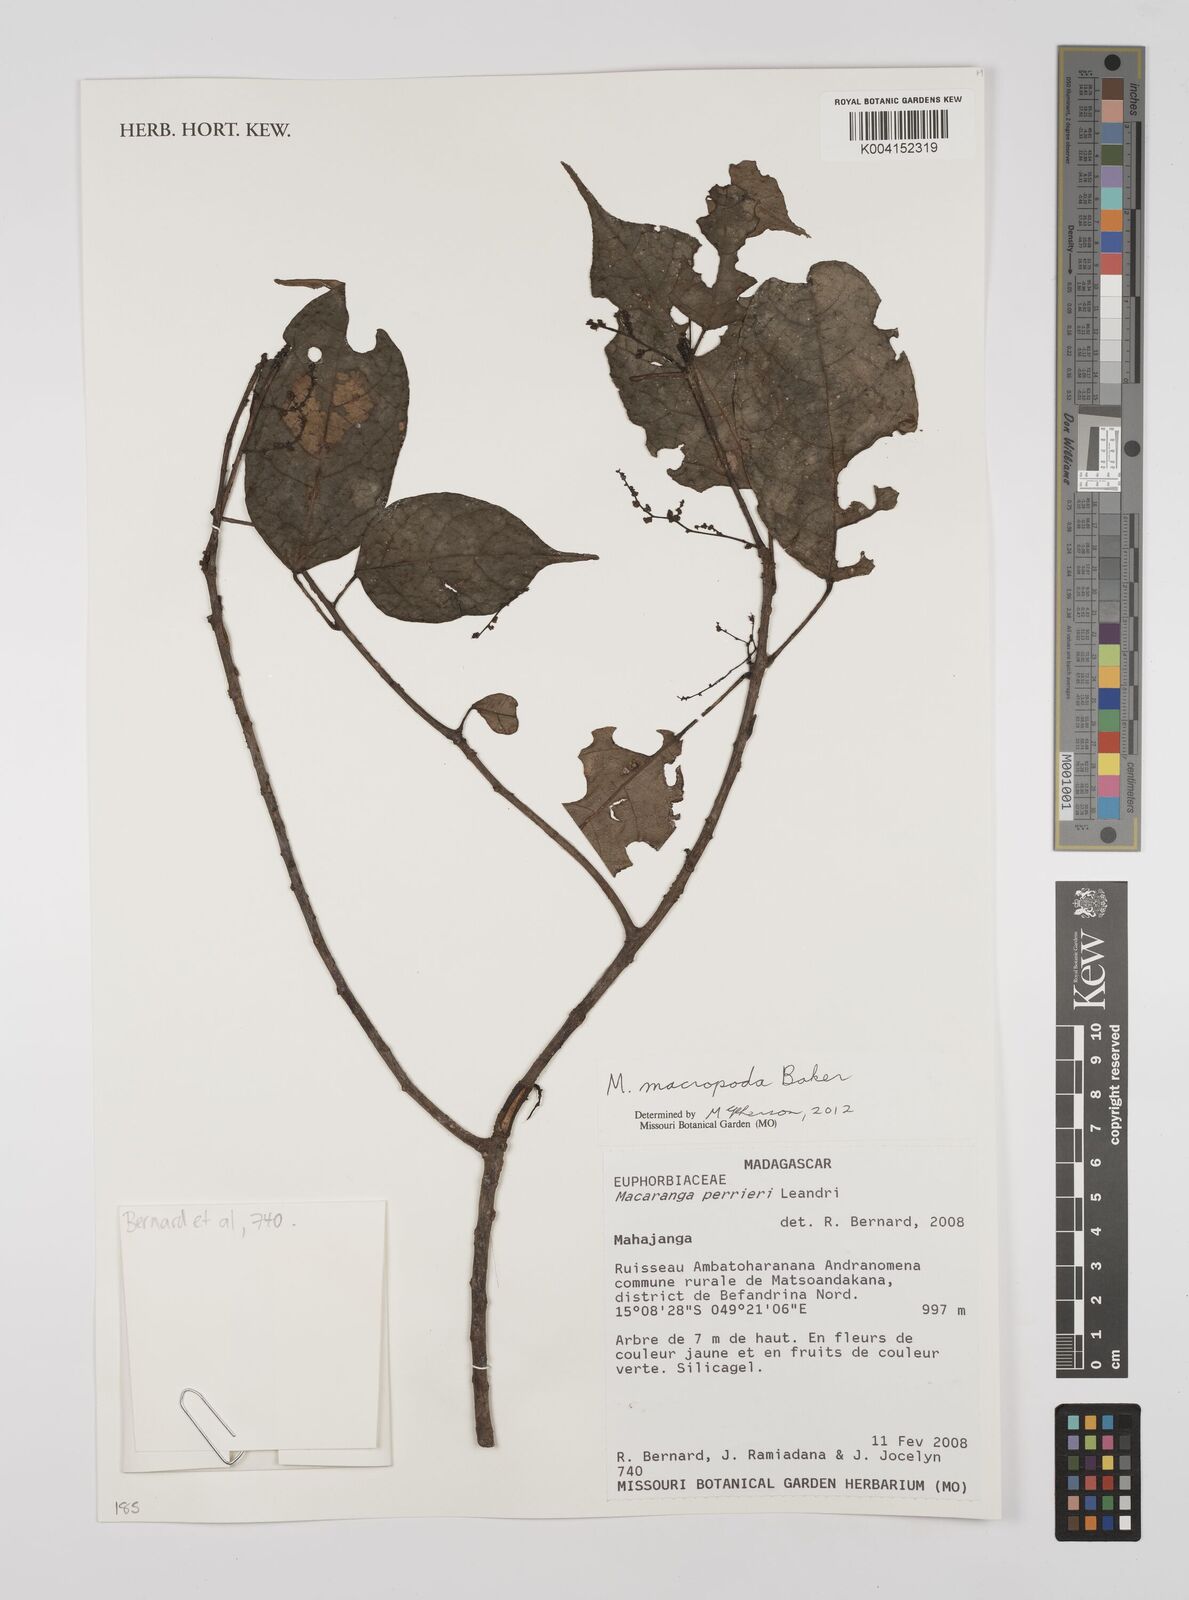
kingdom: Plantae
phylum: Tracheophyta
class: Magnoliopsida
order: Malpighiales
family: Euphorbiaceae
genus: Macaranga
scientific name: Macaranga macropoda
